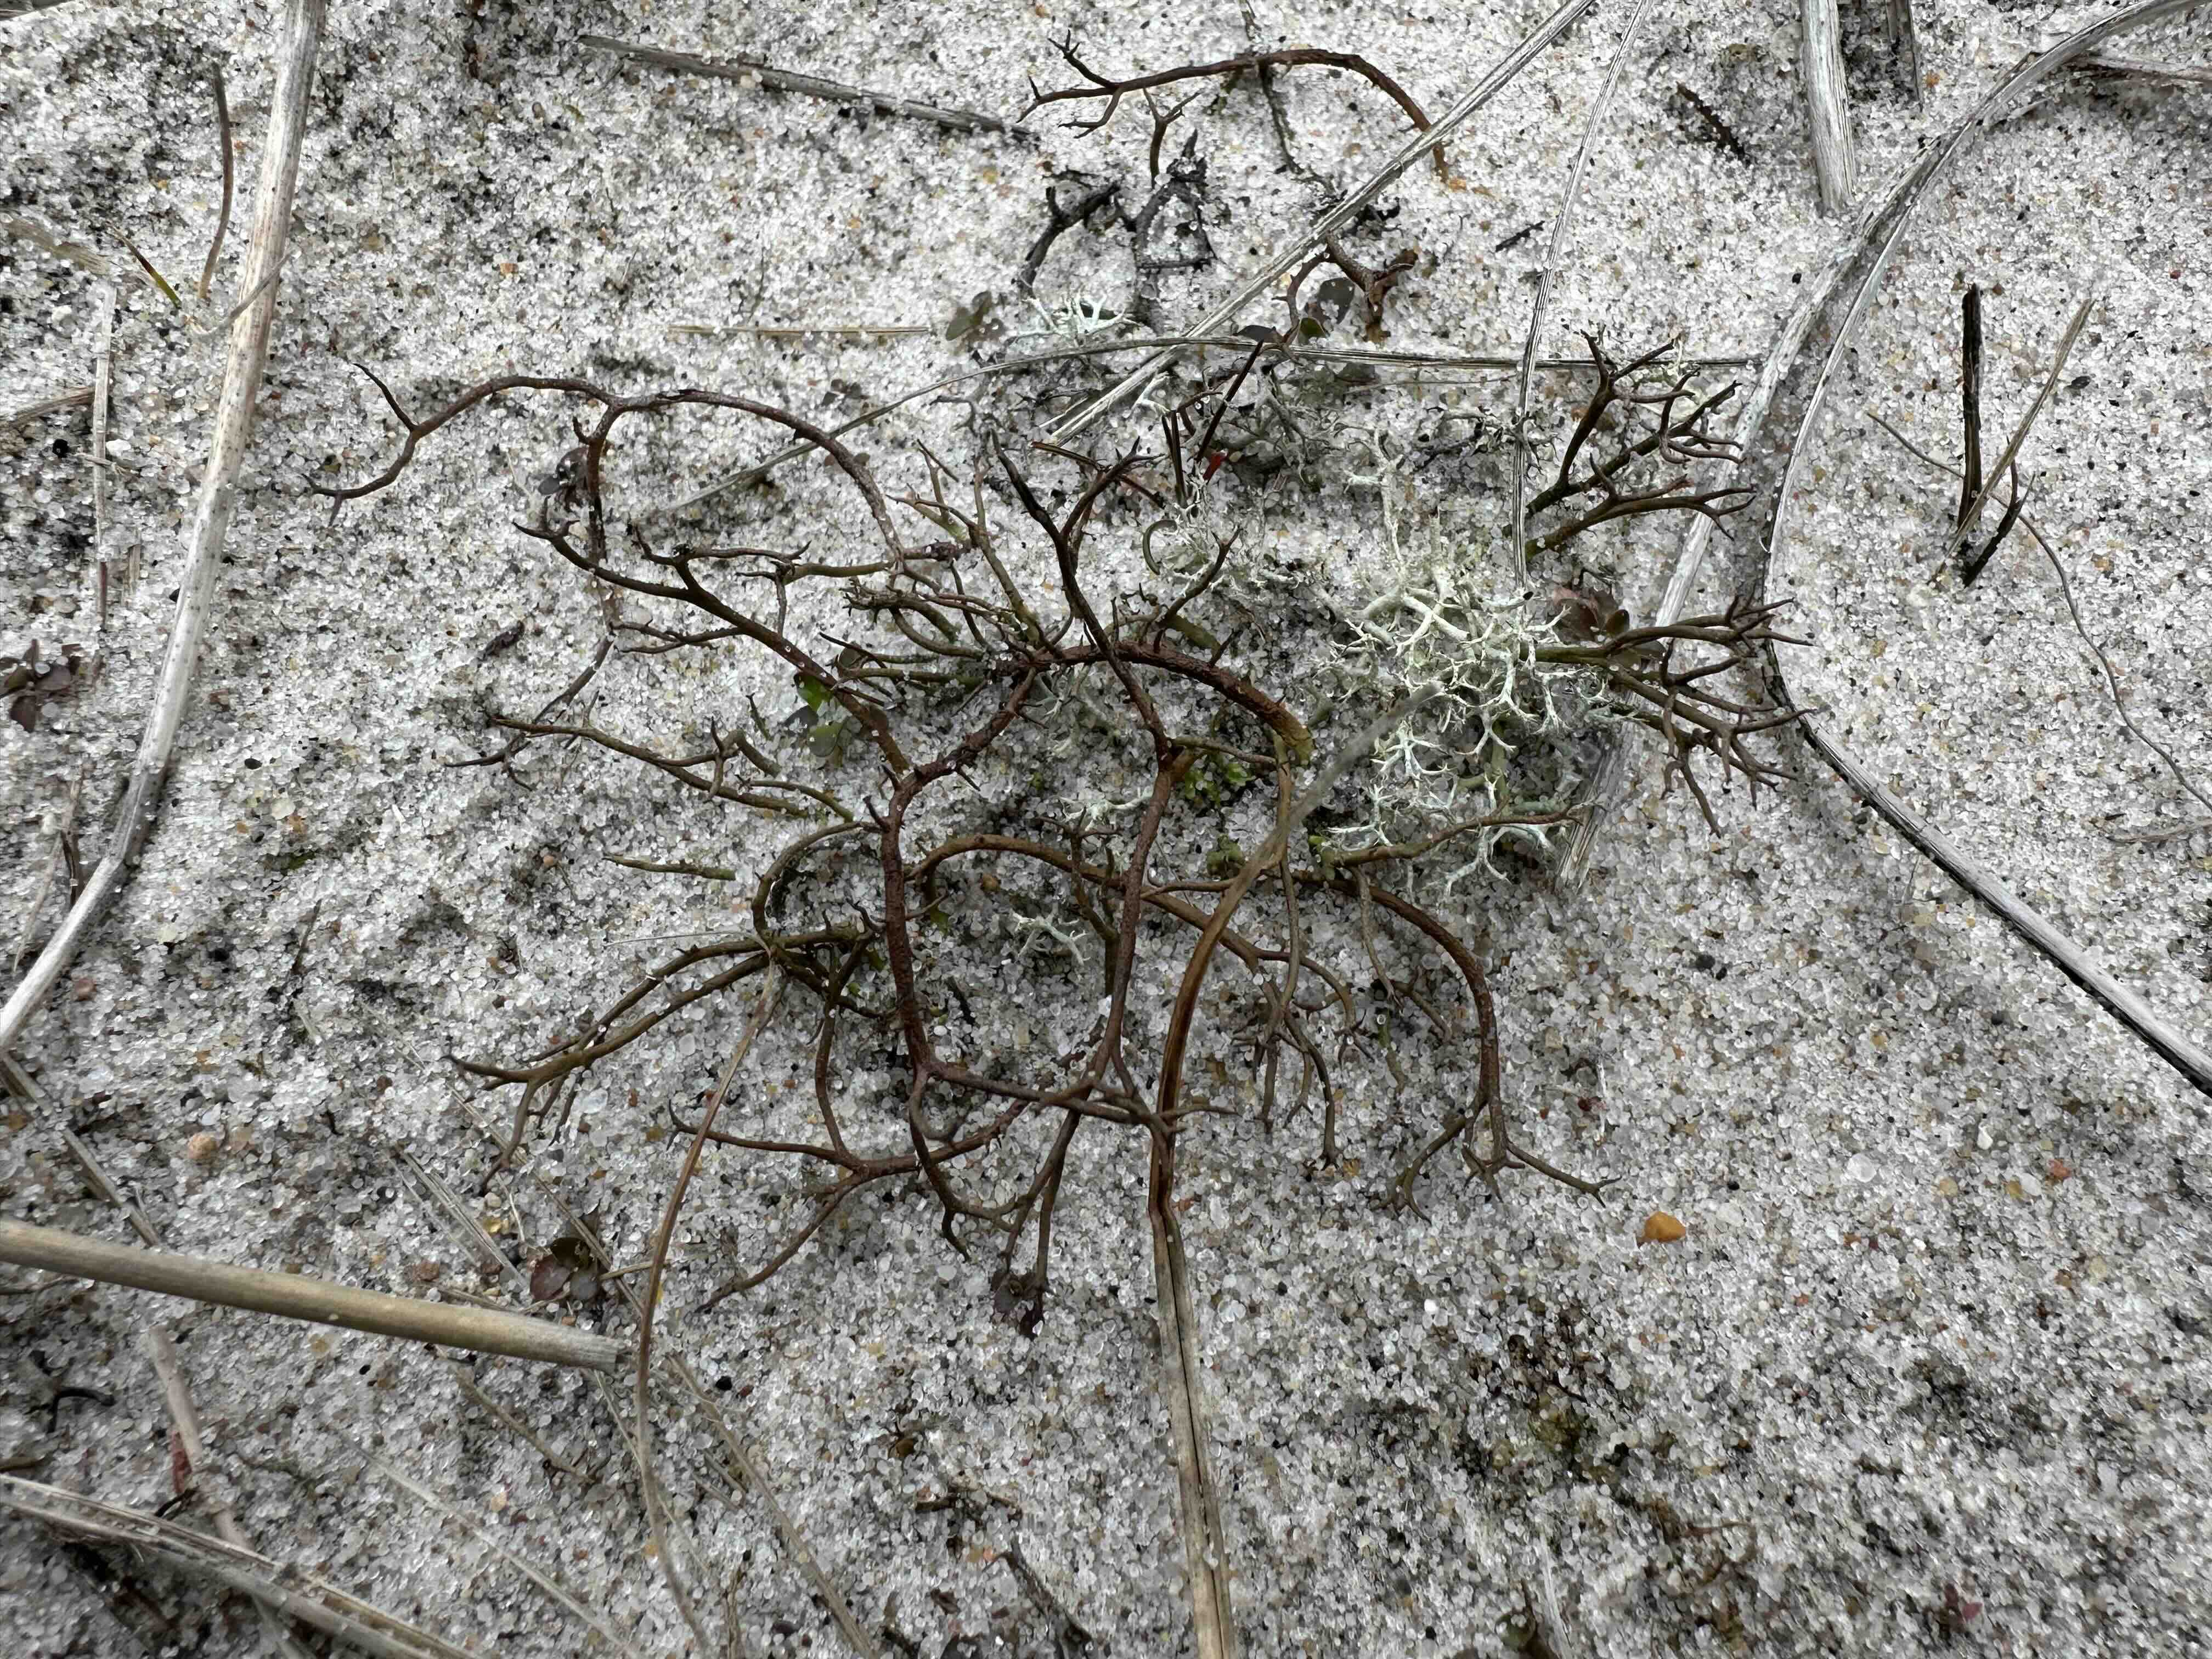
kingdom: Fungi
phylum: Ascomycota
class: Lecanoromycetes
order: Lecanorales
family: Cladoniaceae
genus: Cladonia
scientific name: Cladonia furcata
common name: kløftet bægerlav
